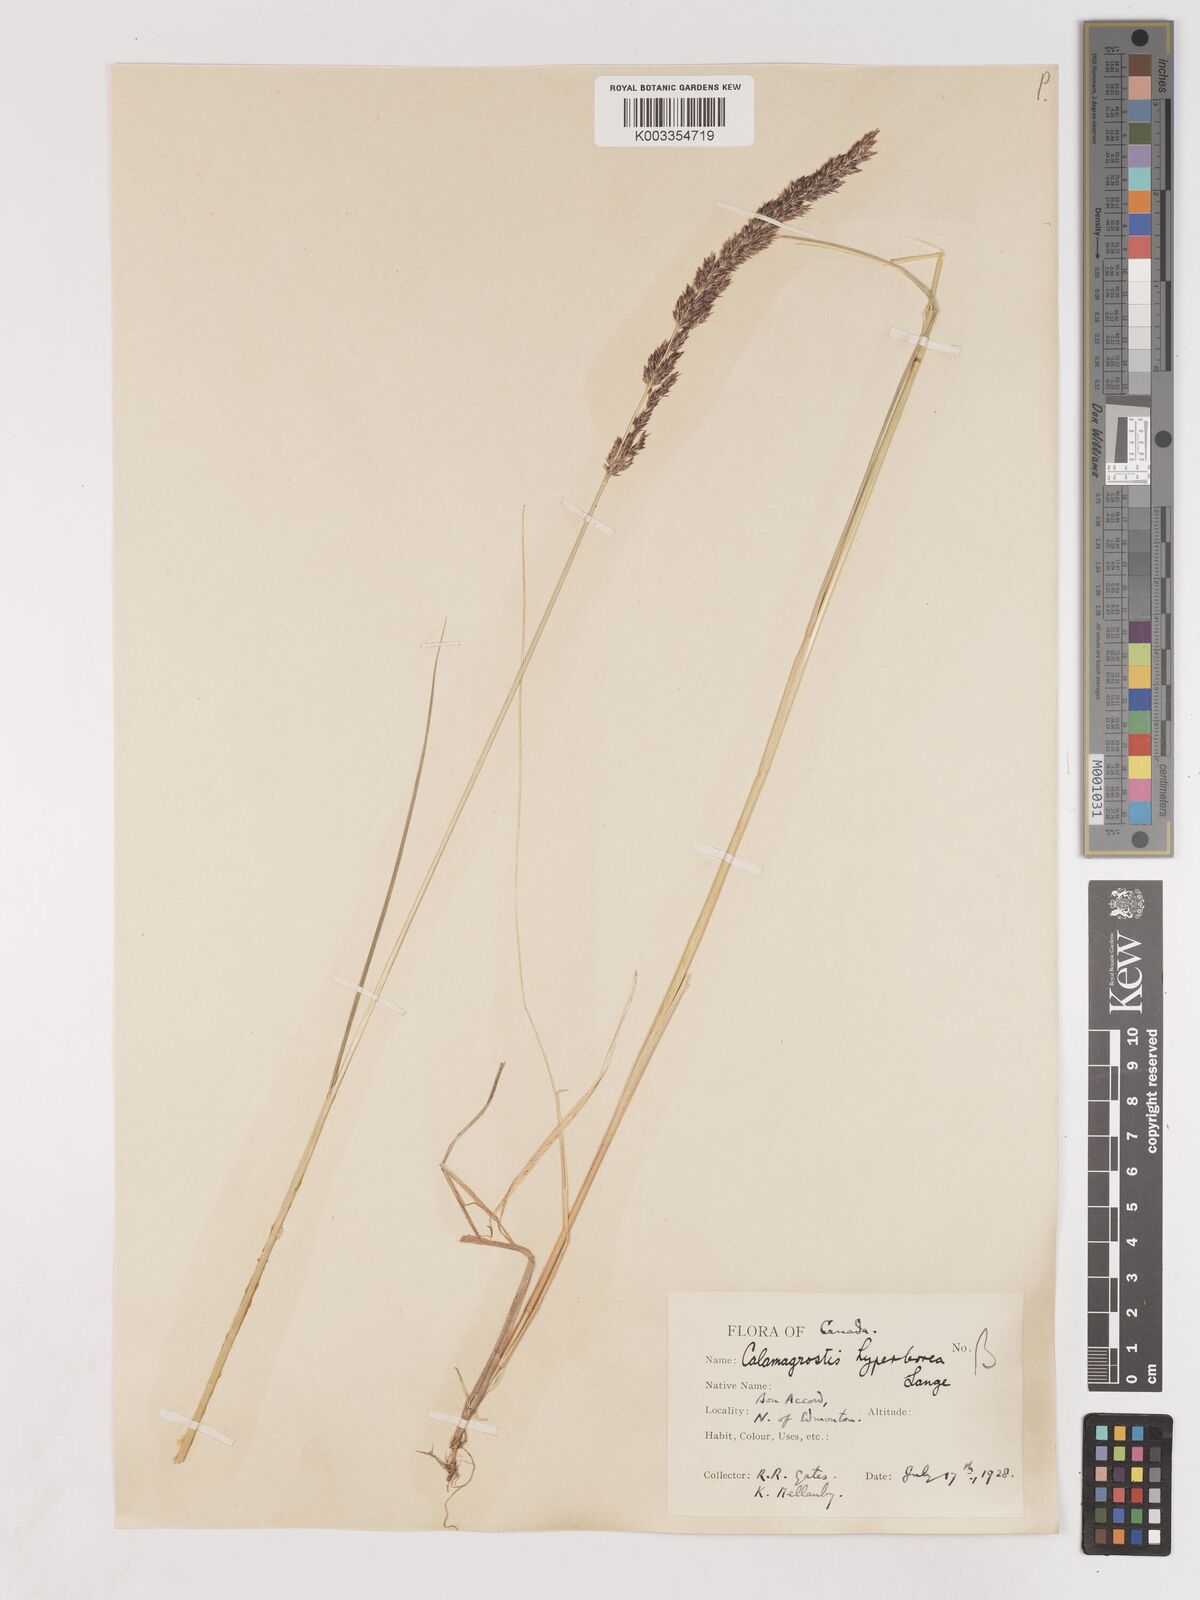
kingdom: Plantae
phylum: Tracheophyta
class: Liliopsida
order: Poales
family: Poaceae
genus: Cinnagrostis
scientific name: Cinnagrostis recta
